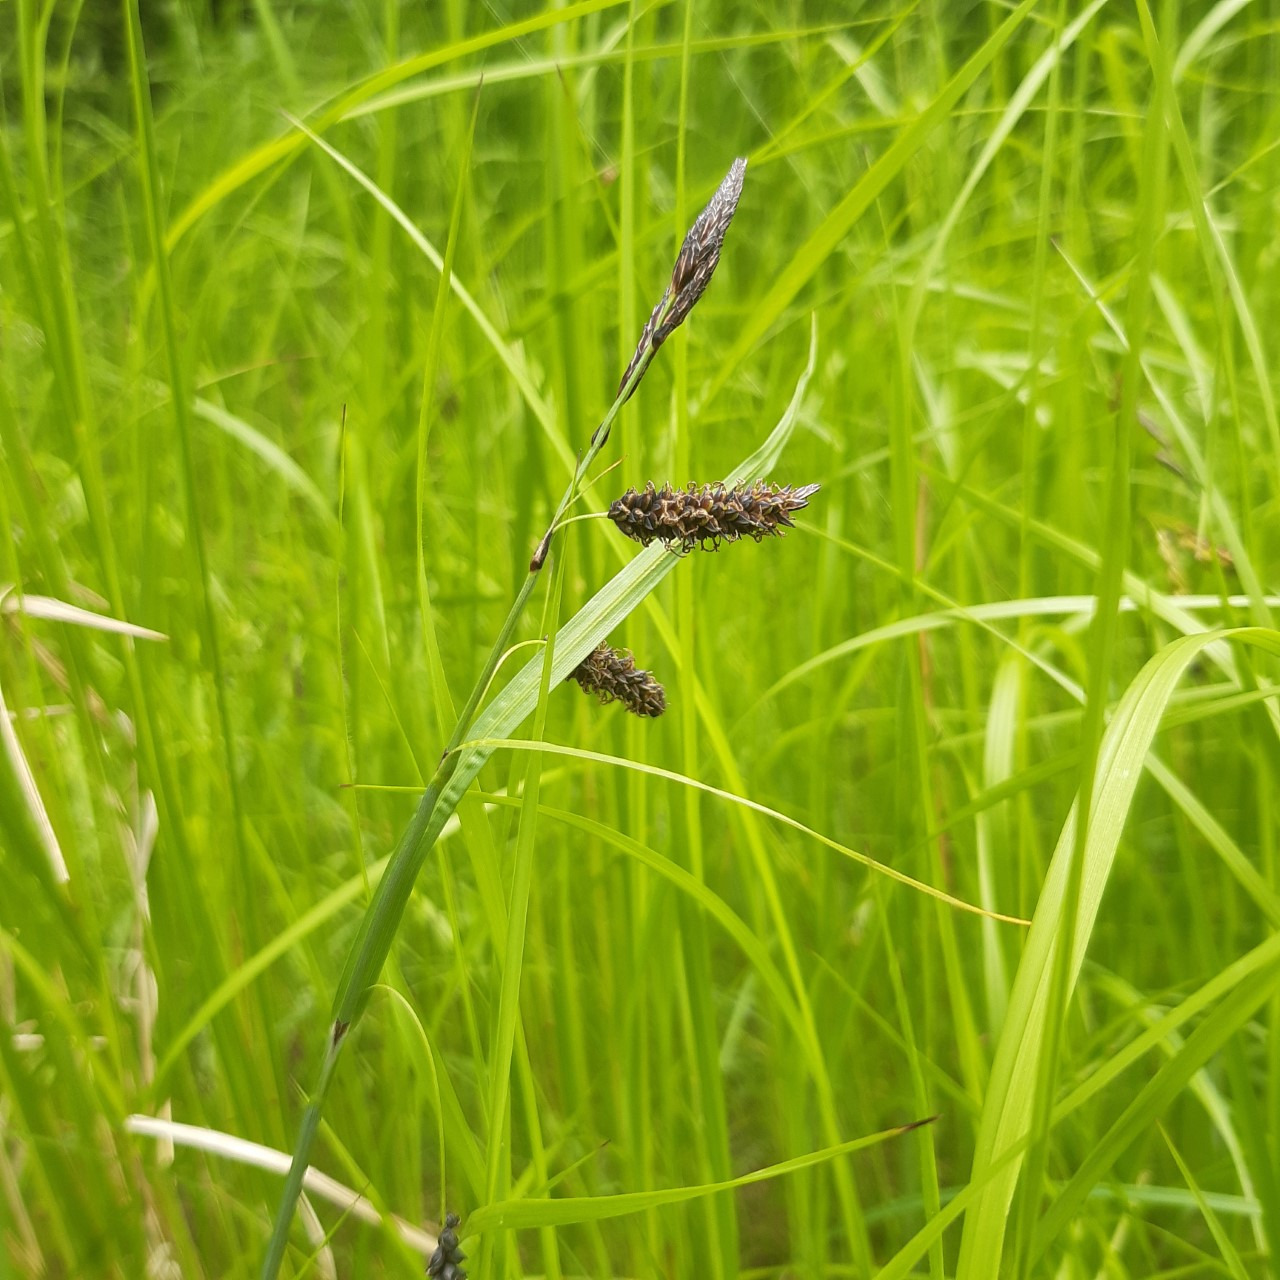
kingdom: Plantae
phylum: Tracheophyta
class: Liliopsida
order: Poales
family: Cyperaceae
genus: Carex
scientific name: Carex flacca
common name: Blågrøn star
